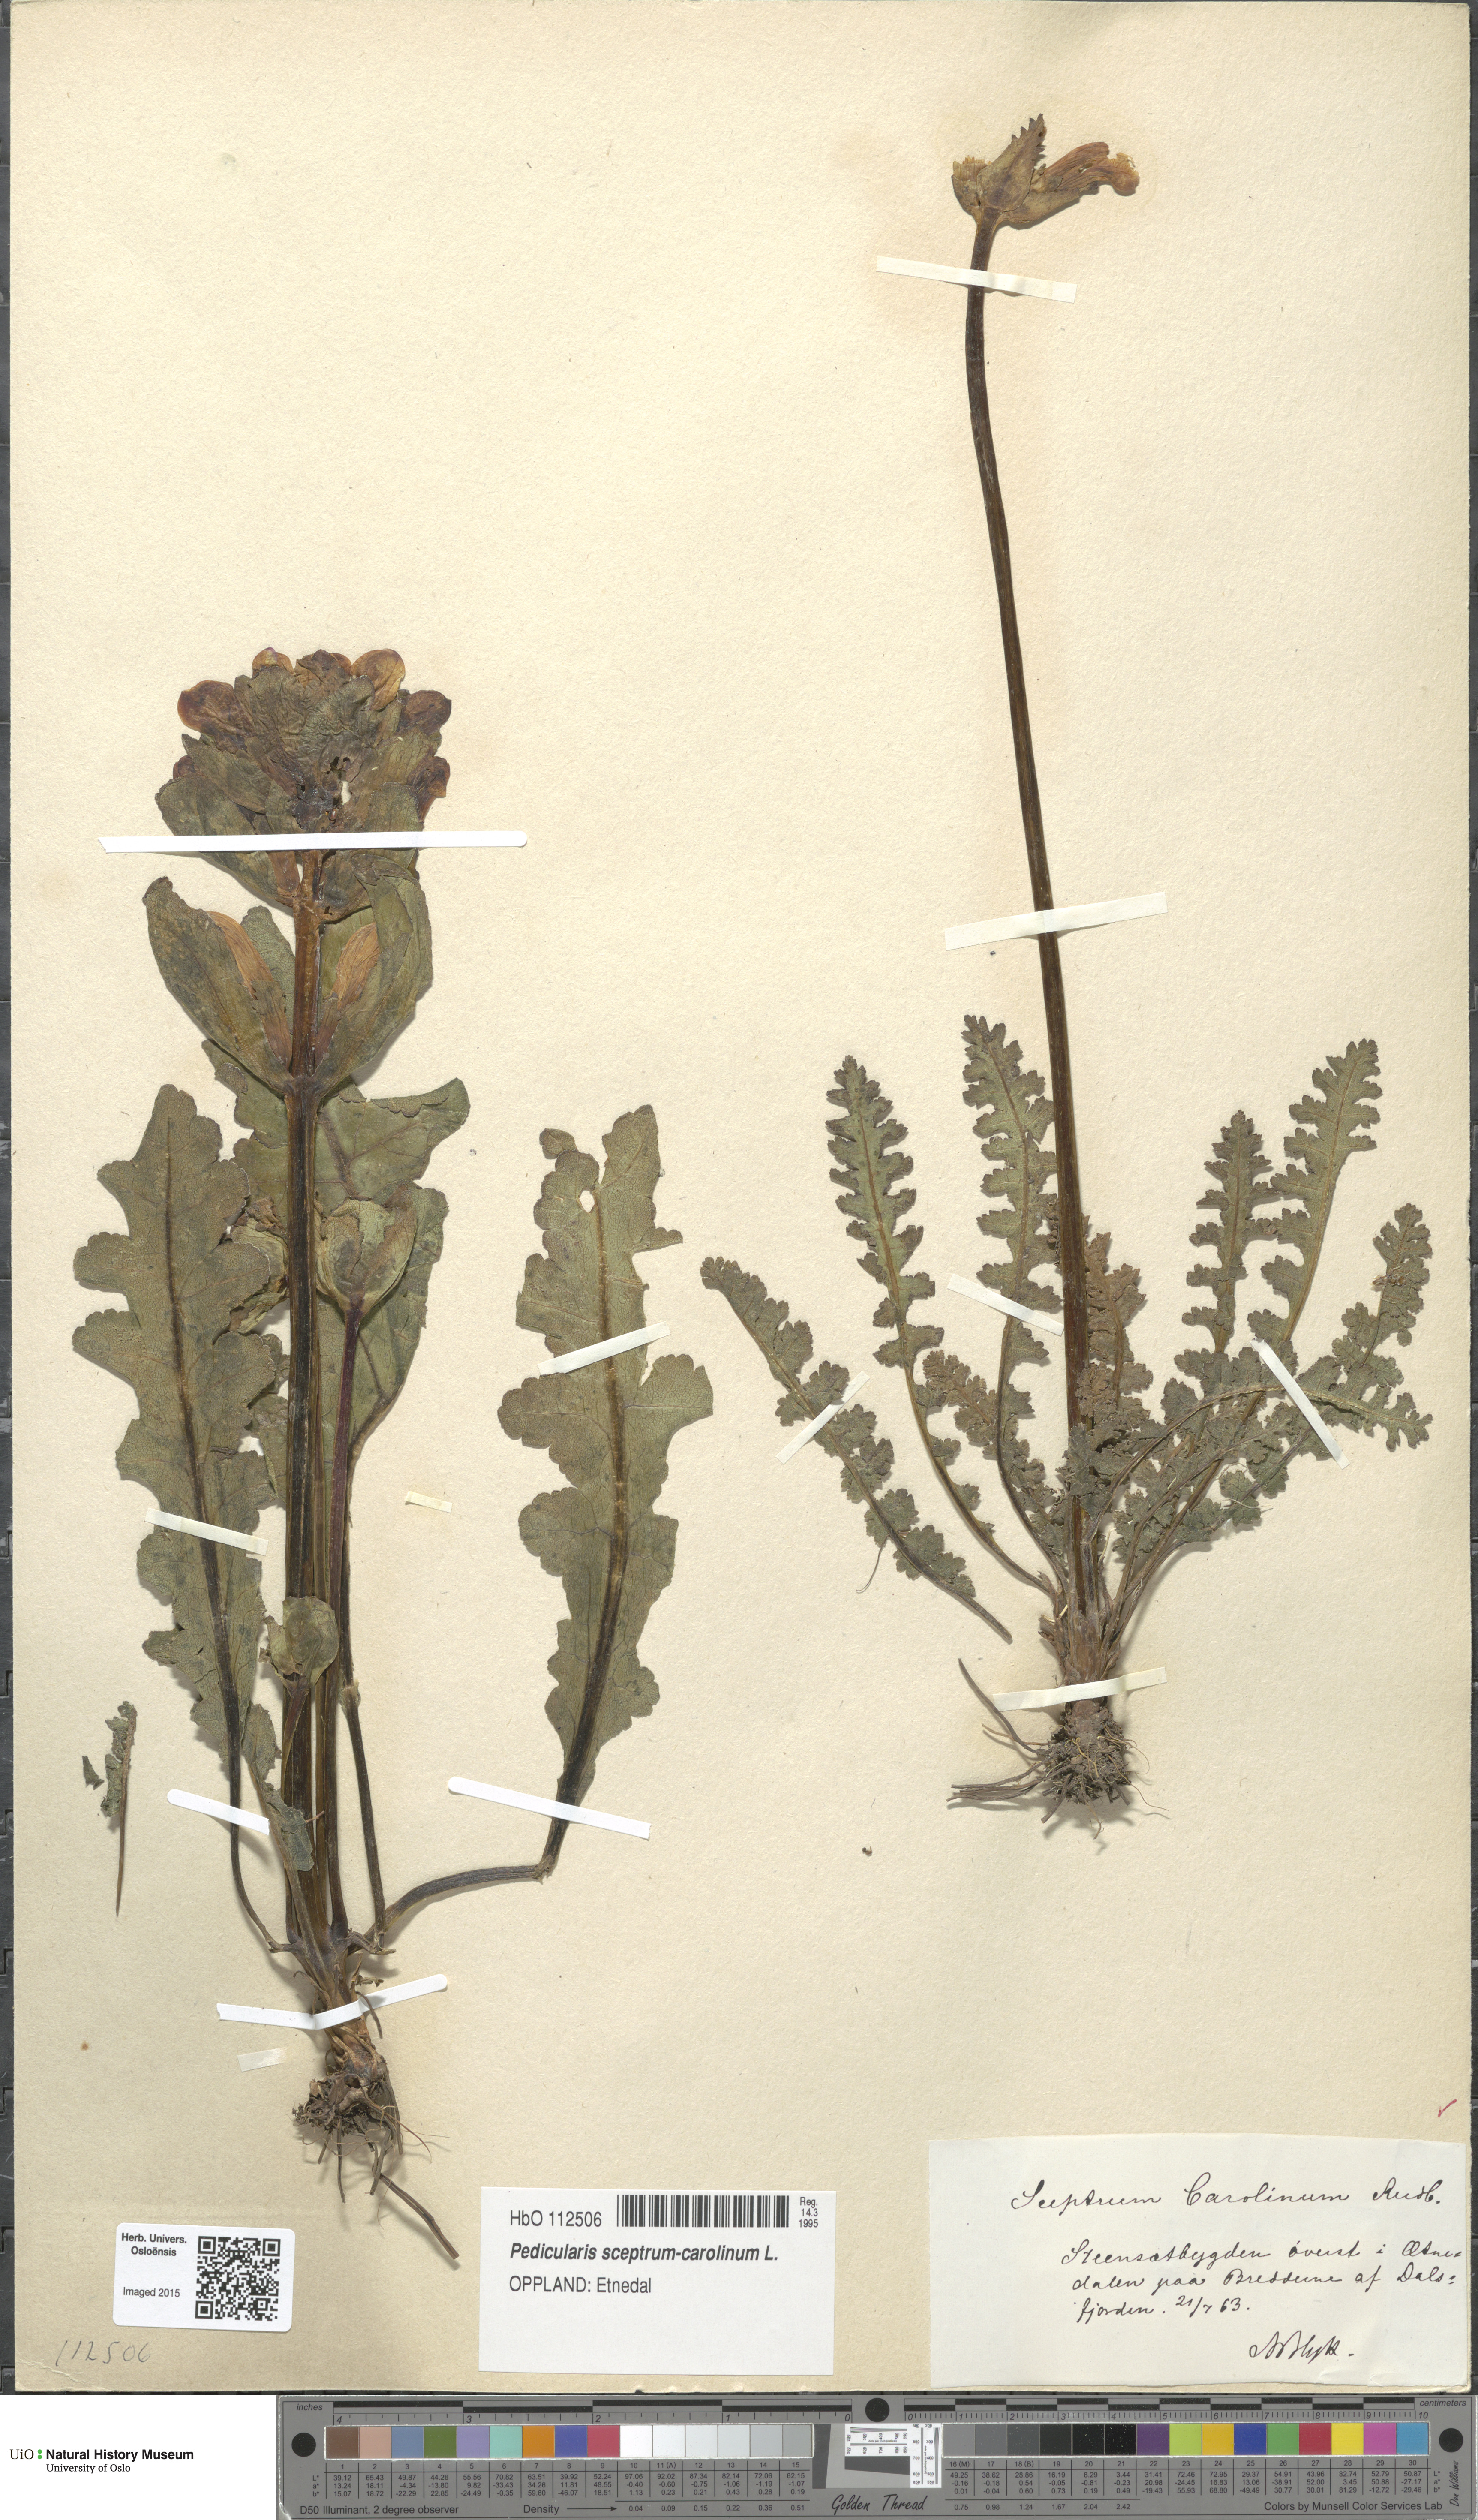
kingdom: Plantae
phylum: Tracheophyta
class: Magnoliopsida
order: Lamiales
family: Orobanchaceae
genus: Pedicularis
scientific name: Pedicularis sceptrum-carolinum
